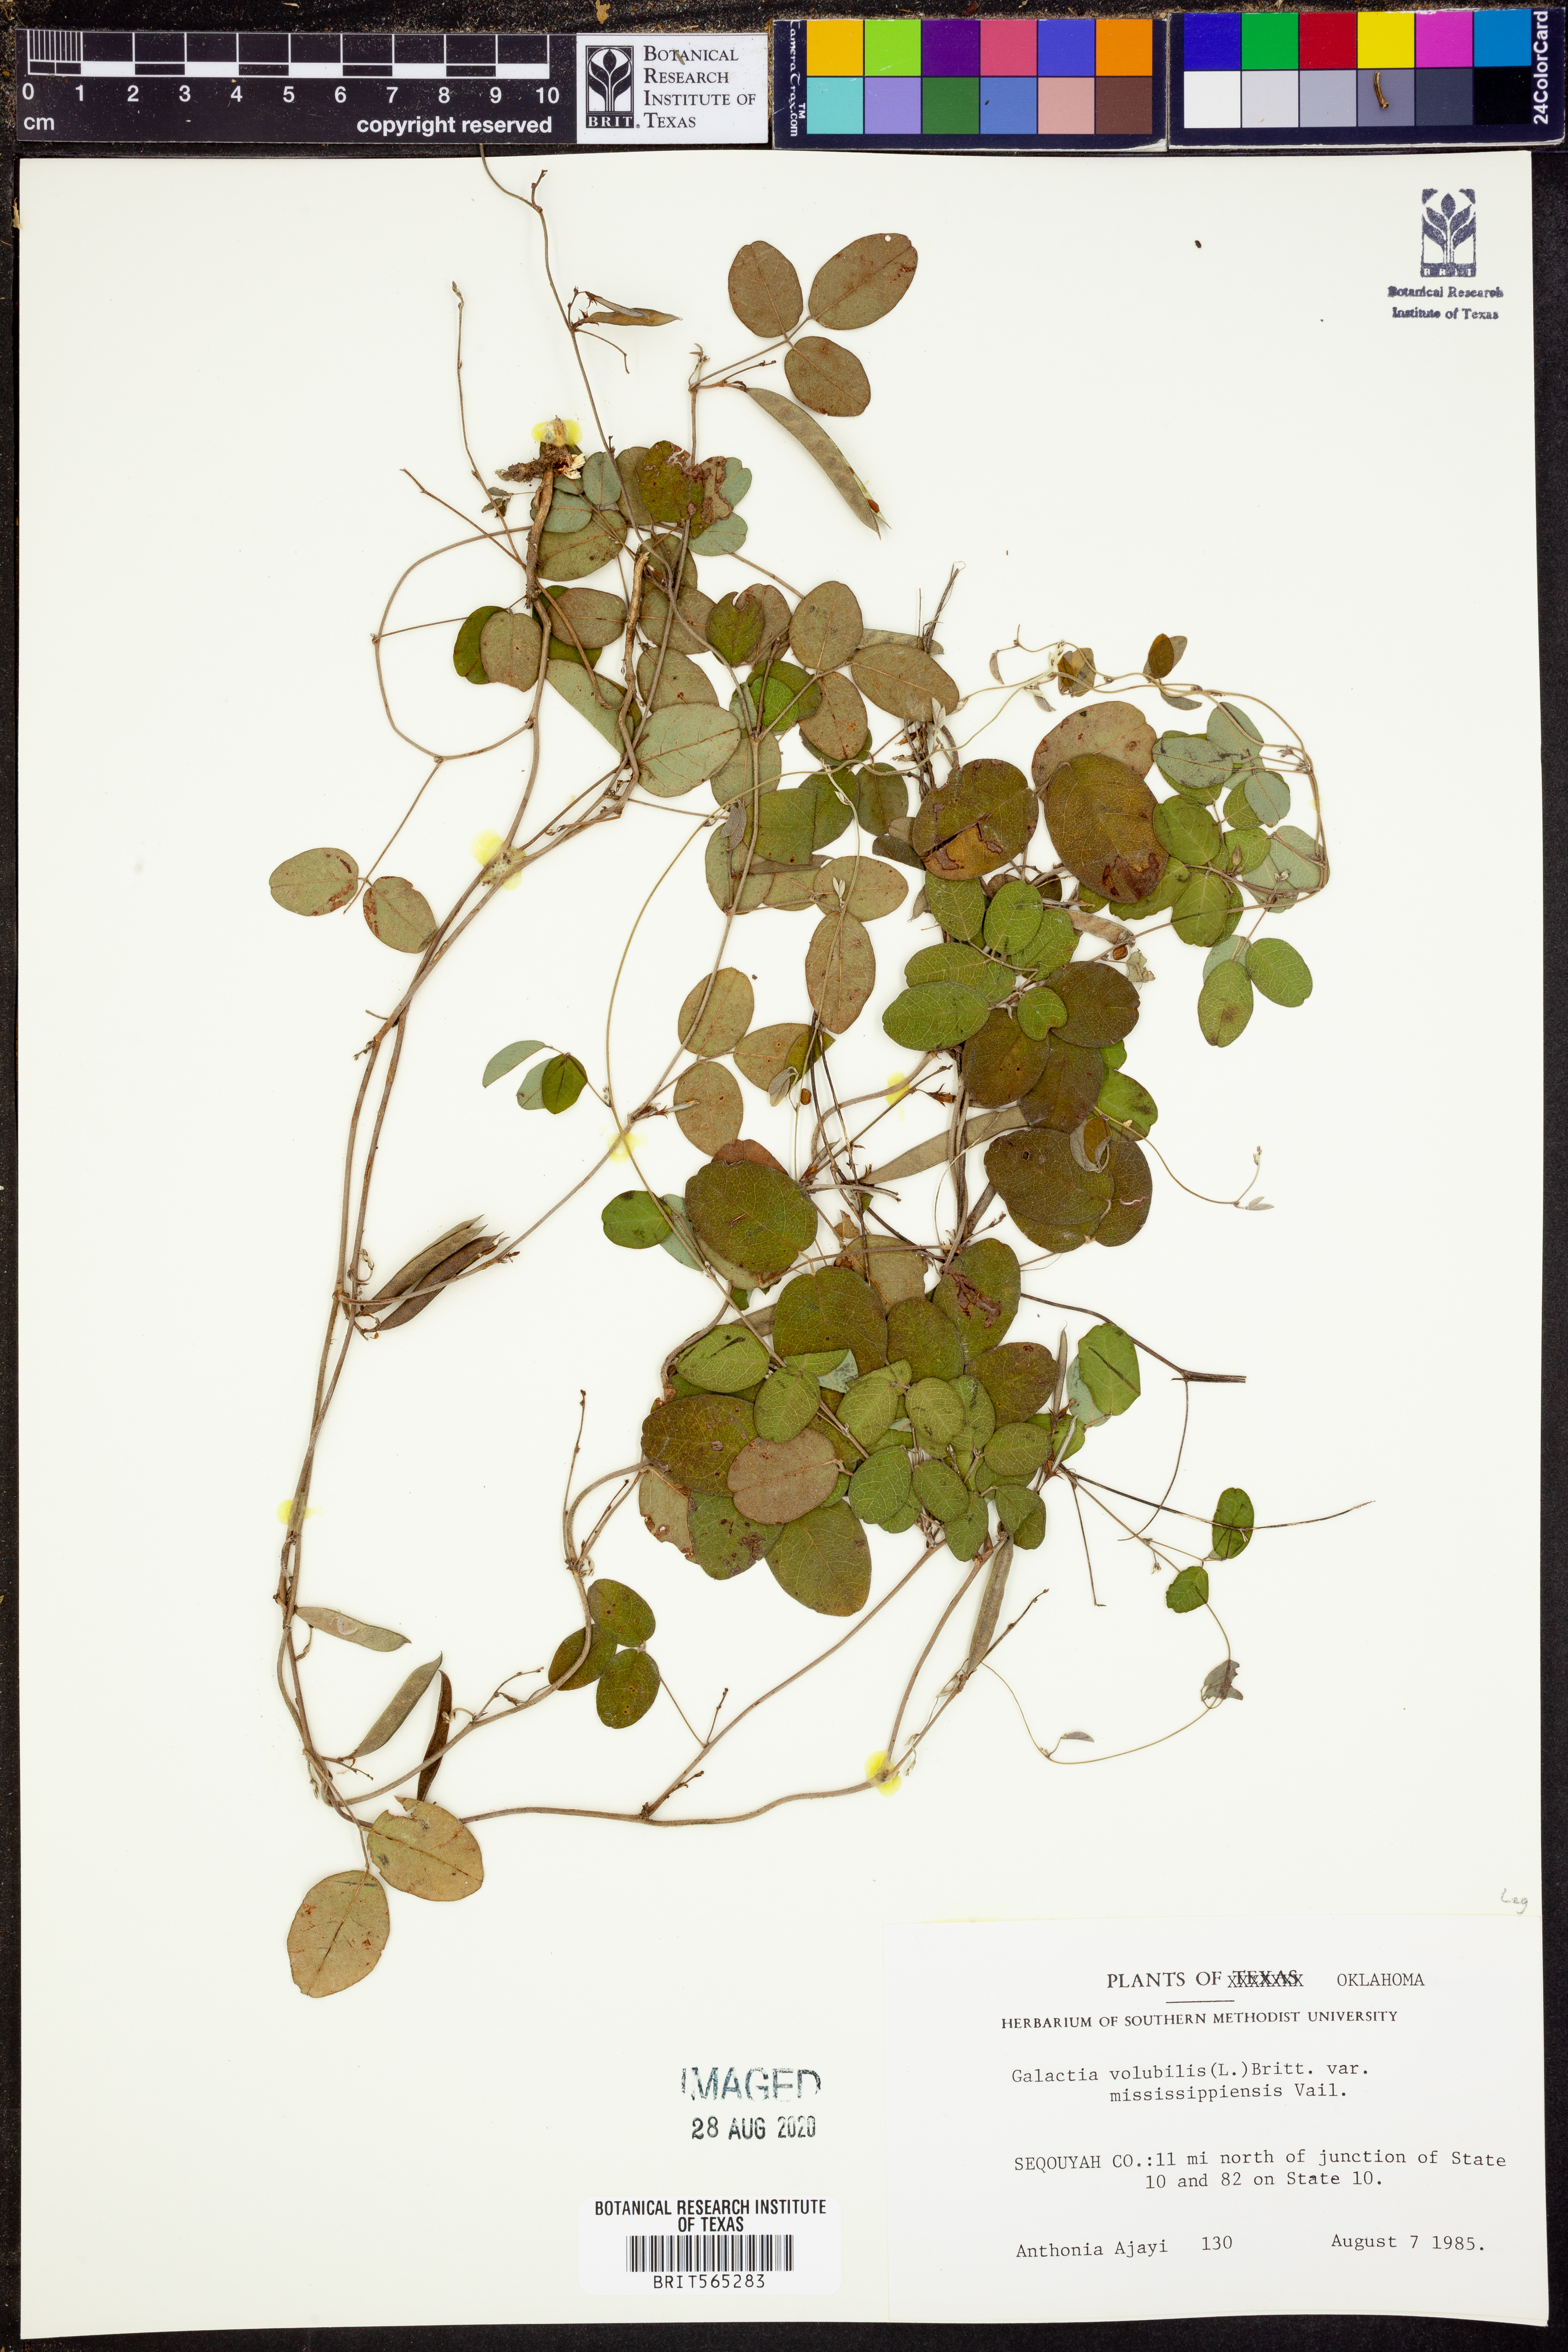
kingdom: Plantae
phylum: Tracheophyta
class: Magnoliopsida
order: Fabales
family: Fabaceae
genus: Galactia
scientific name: Galactia volubilis
